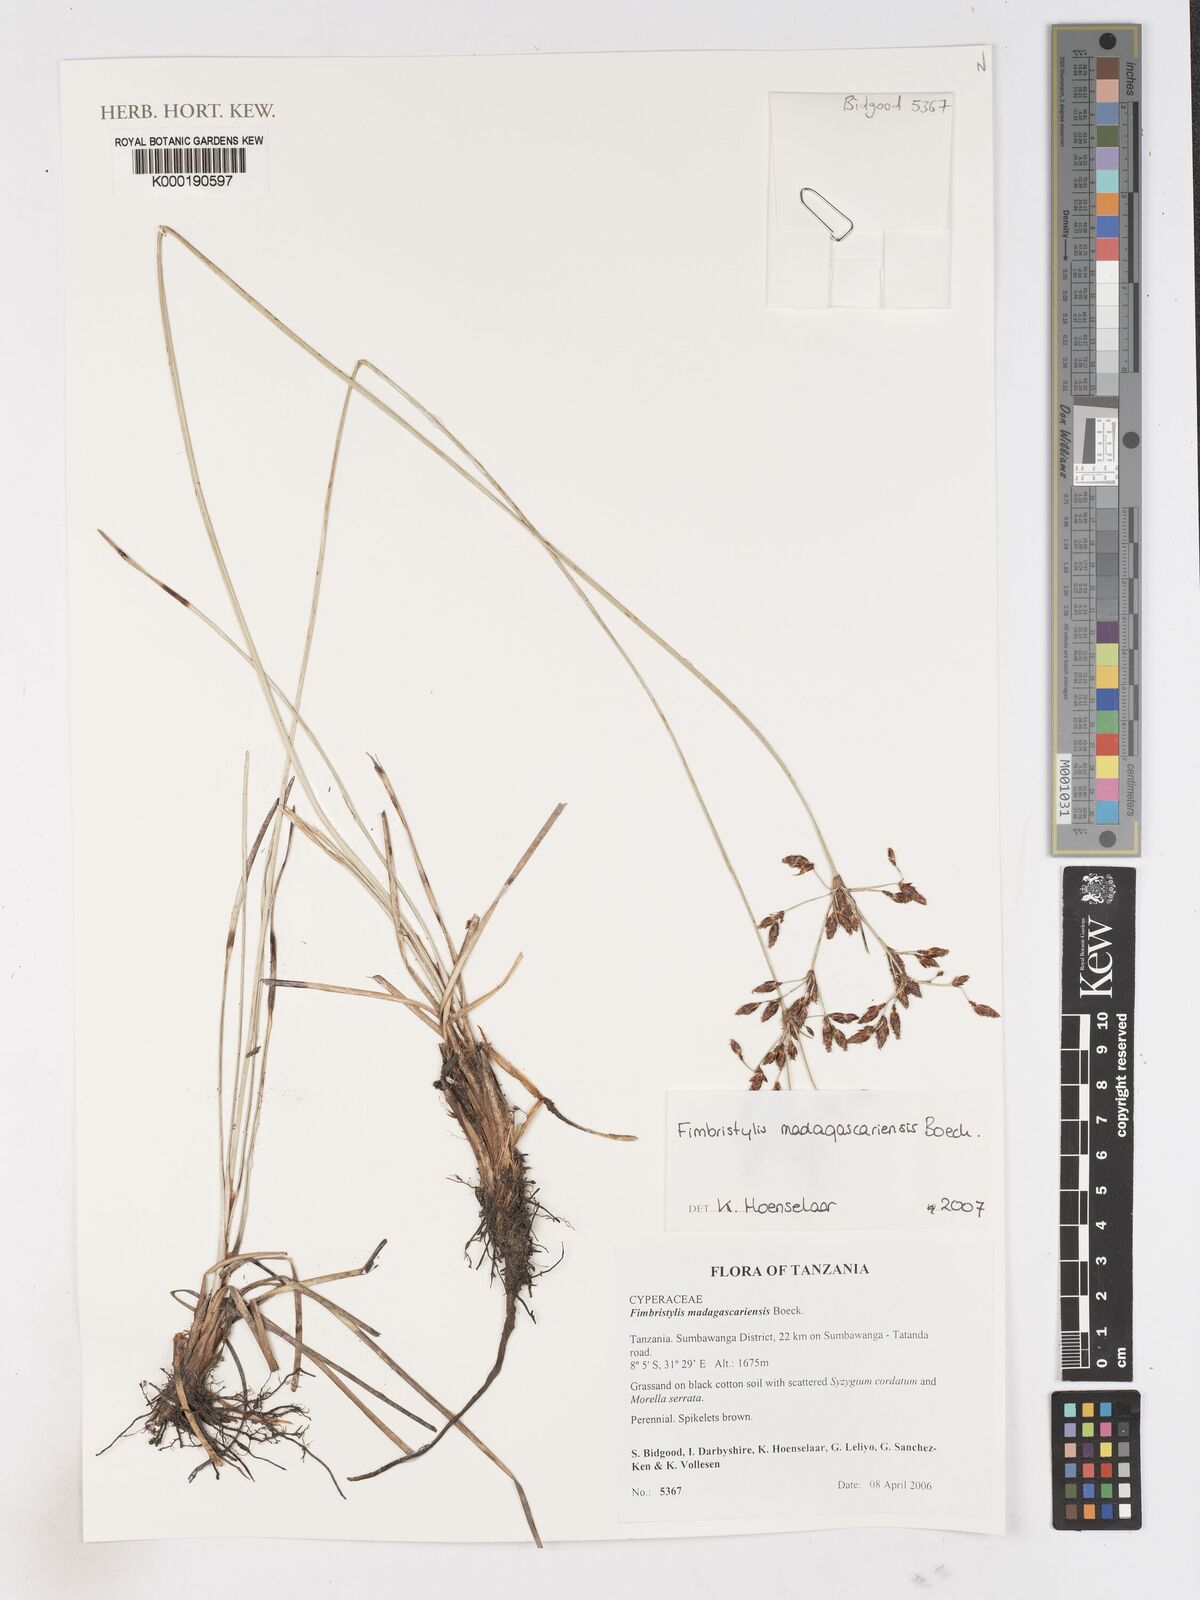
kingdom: Plantae
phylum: Tracheophyta
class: Liliopsida
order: Poales
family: Cyperaceae
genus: Fimbristylis
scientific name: Fimbristylis madagascariensis
